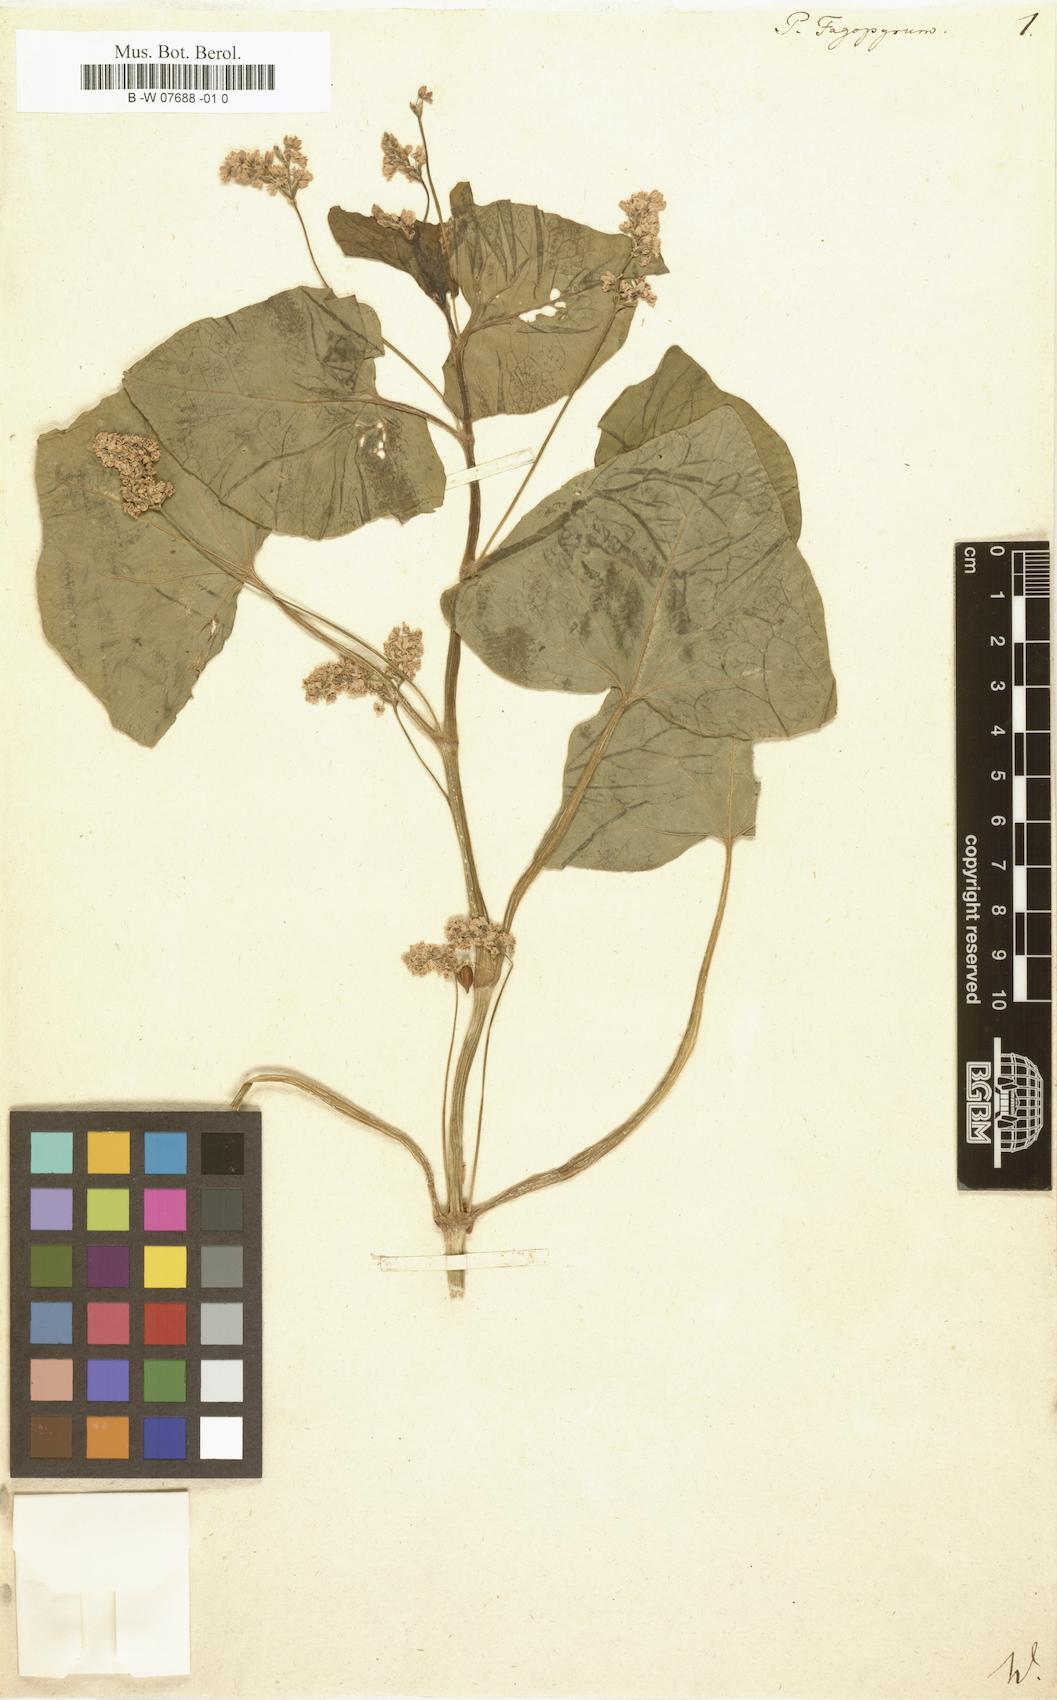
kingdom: Plantae
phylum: Tracheophyta
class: Magnoliopsida
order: Caryophyllales
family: Polygonaceae
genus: Fagopyrum
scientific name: Fagopyrum
